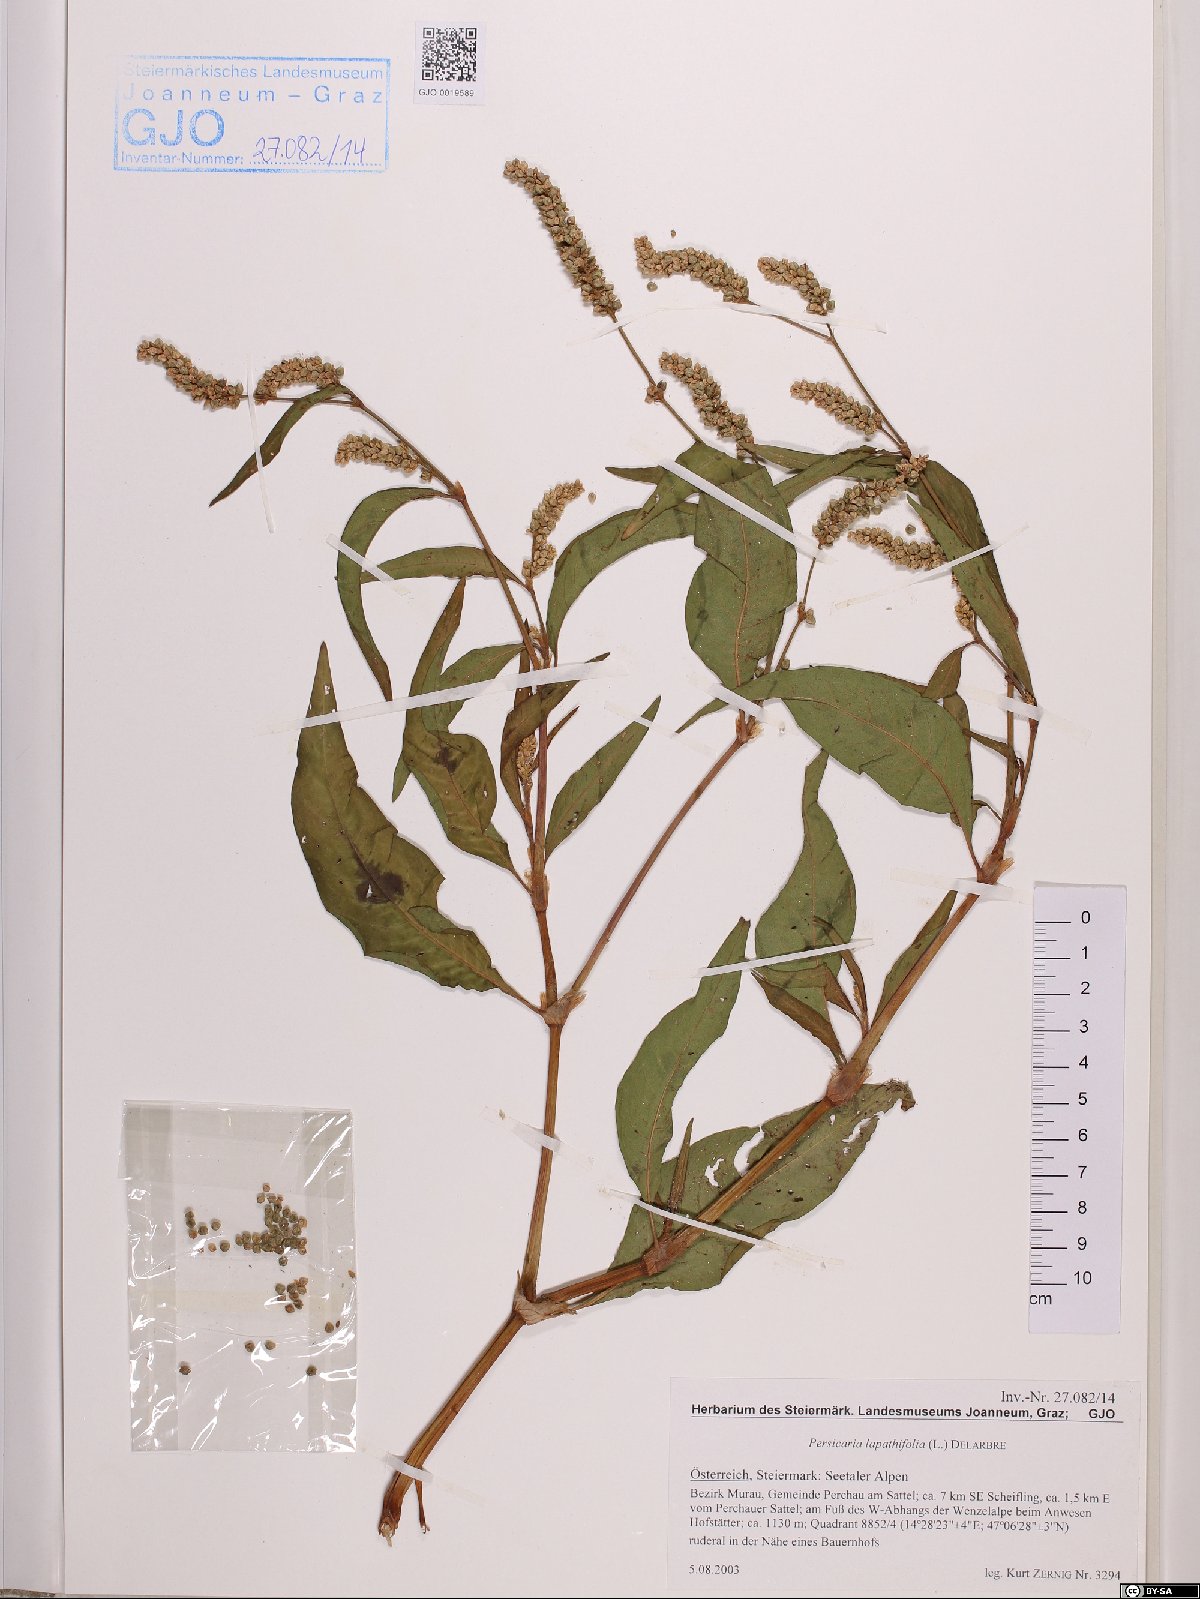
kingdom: Plantae
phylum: Tracheophyta
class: Magnoliopsida
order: Caryophyllales
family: Polygonaceae
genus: Persicaria
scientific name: Persicaria lapathifolia
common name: Curlytop knotweed
